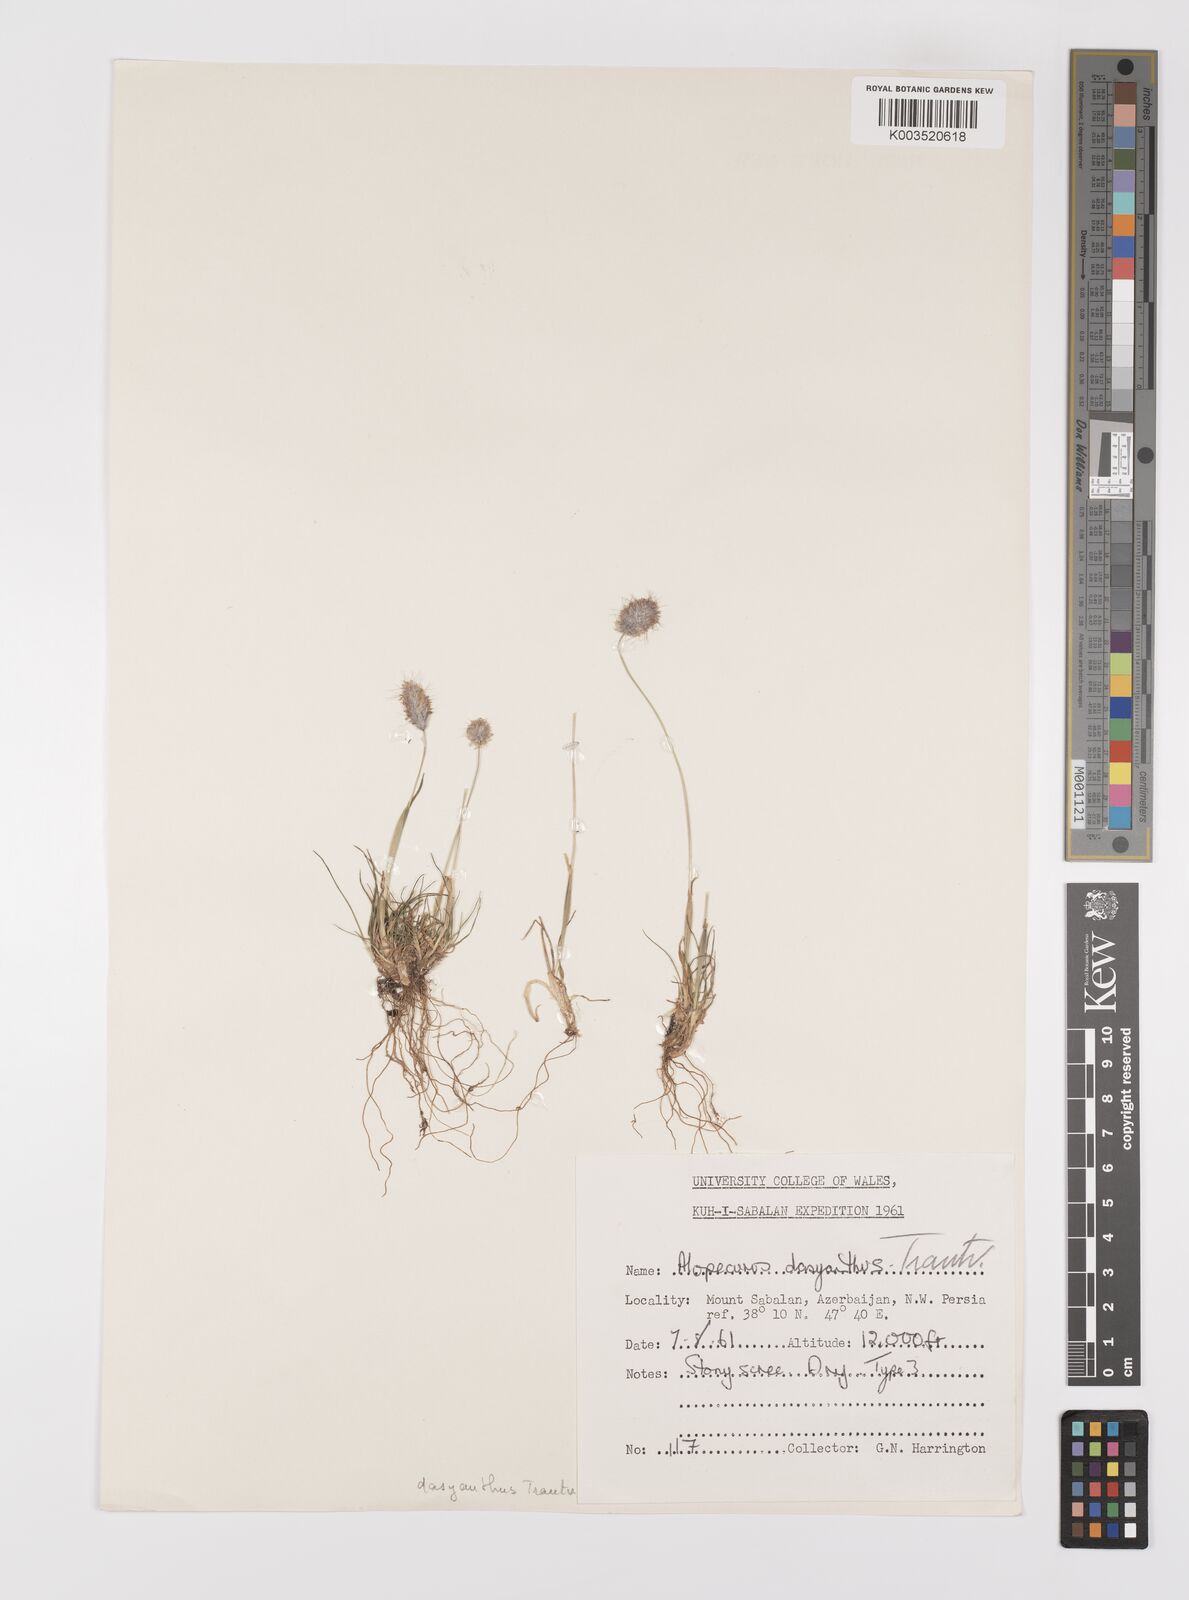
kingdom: Plantae
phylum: Tracheophyta
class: Liliopsida
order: Poales
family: Poaceae
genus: Alopecurus
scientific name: Alopecurus dasyanthus
